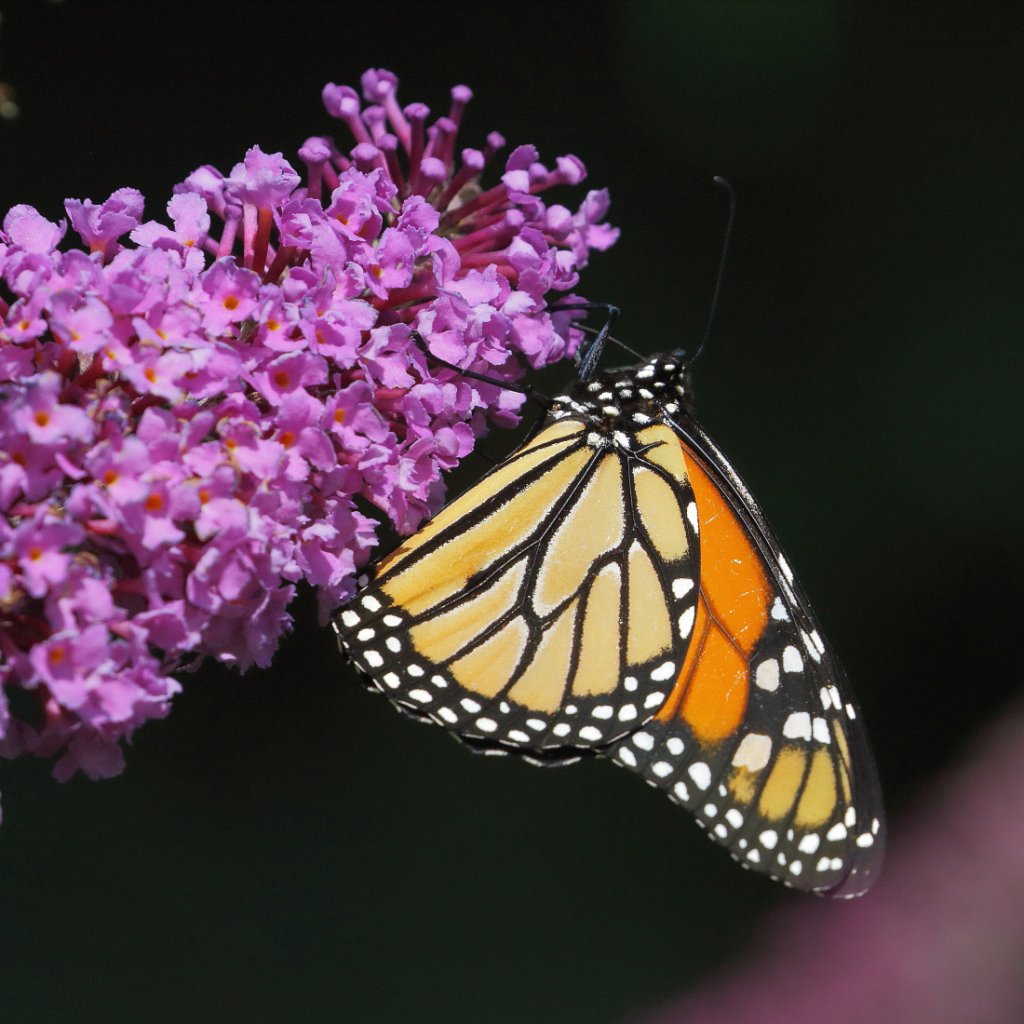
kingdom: Animalia
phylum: Arthropoda
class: Insecta
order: Lepidoptera
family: Nymphalidae
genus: Danaus
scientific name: Danaus plexippus
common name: Monarch
